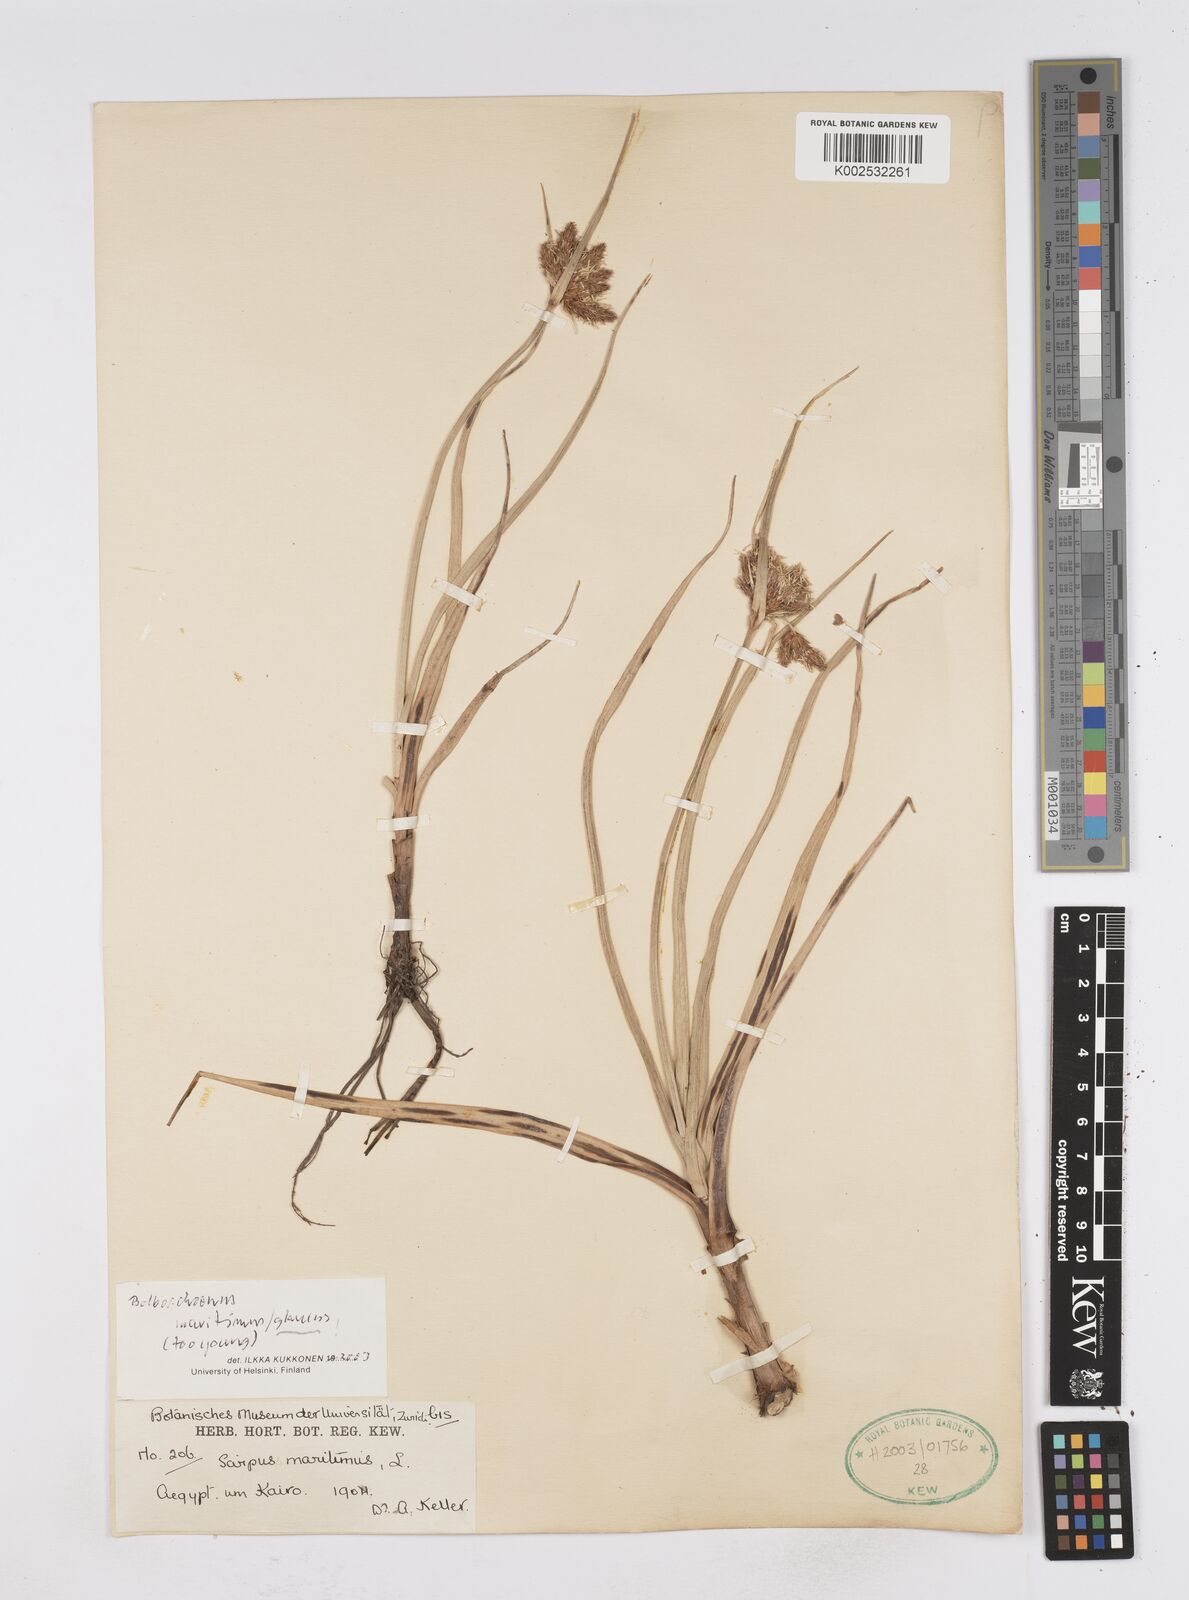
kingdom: Plantae
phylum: Tracheophyta
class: Liliopsida
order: Poales
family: Cyperaceae
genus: Bolboschoenus
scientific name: Bolboschoenus maritimus
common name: Sea club-rush
